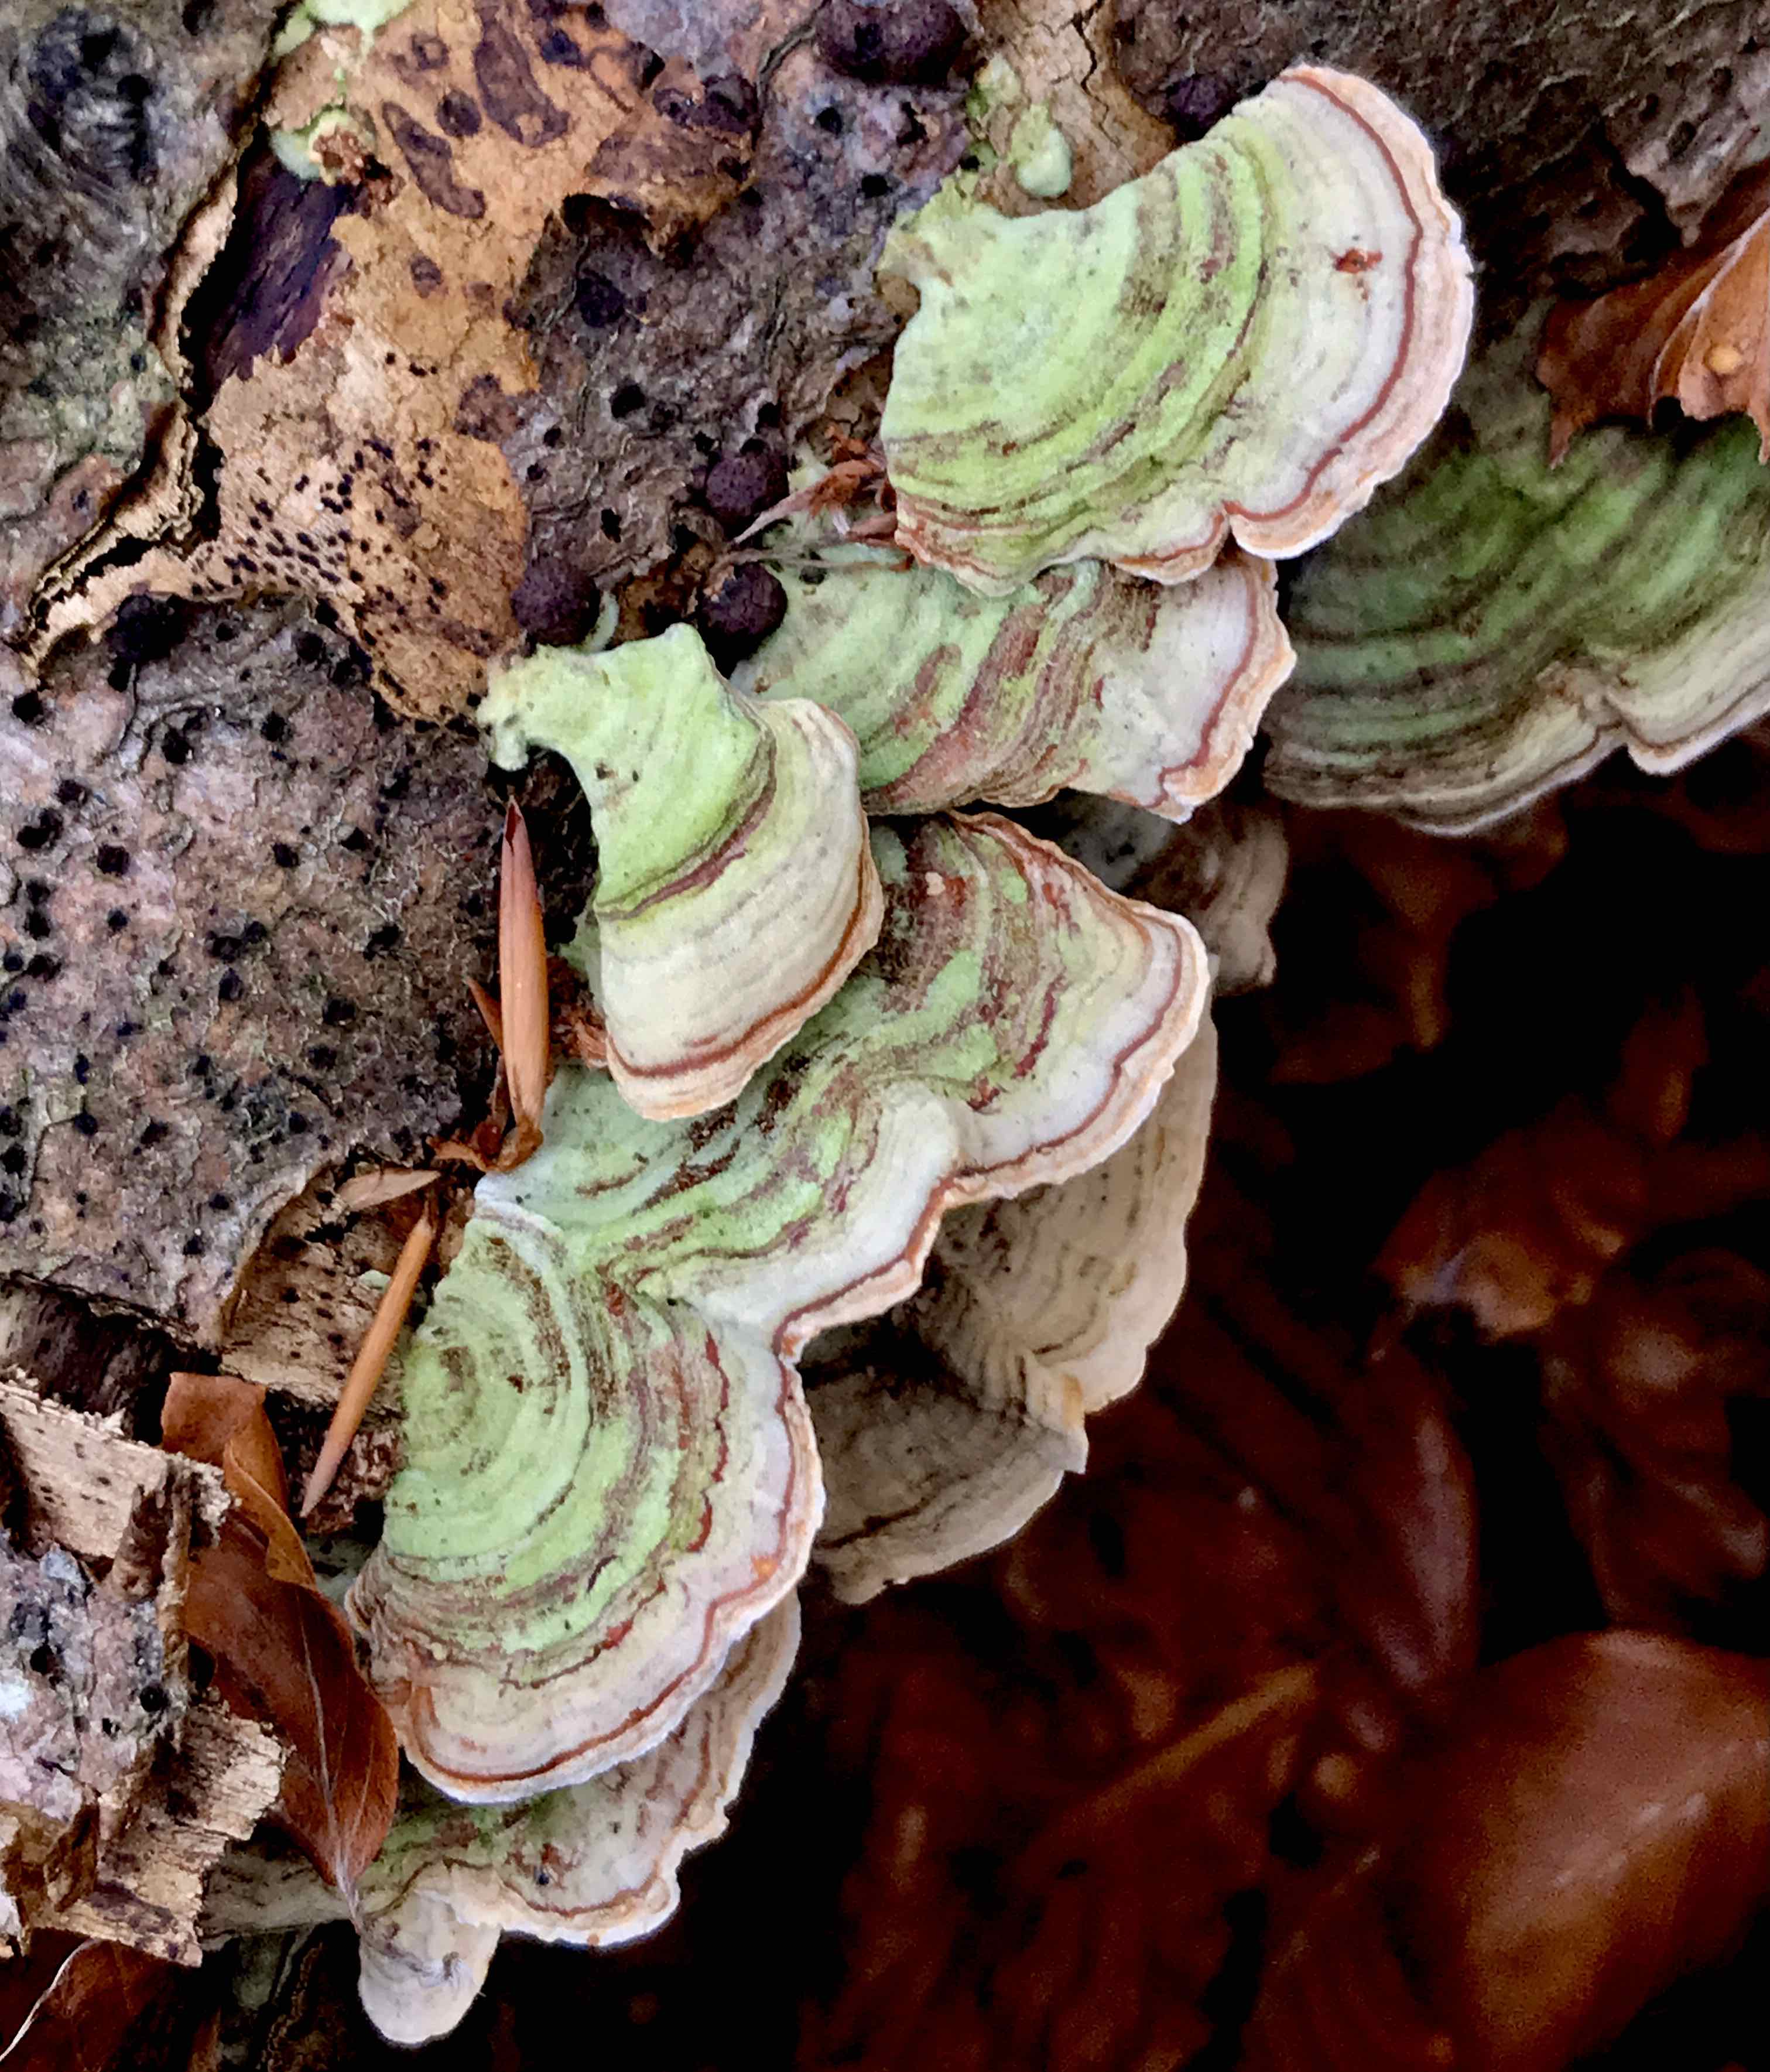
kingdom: Fungi
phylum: Basidiomycota
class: Agaricomycetes
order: Russulales
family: Stereaceae
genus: Stereum
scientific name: Stereum subtomentosum
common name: smuk lædersvamp
